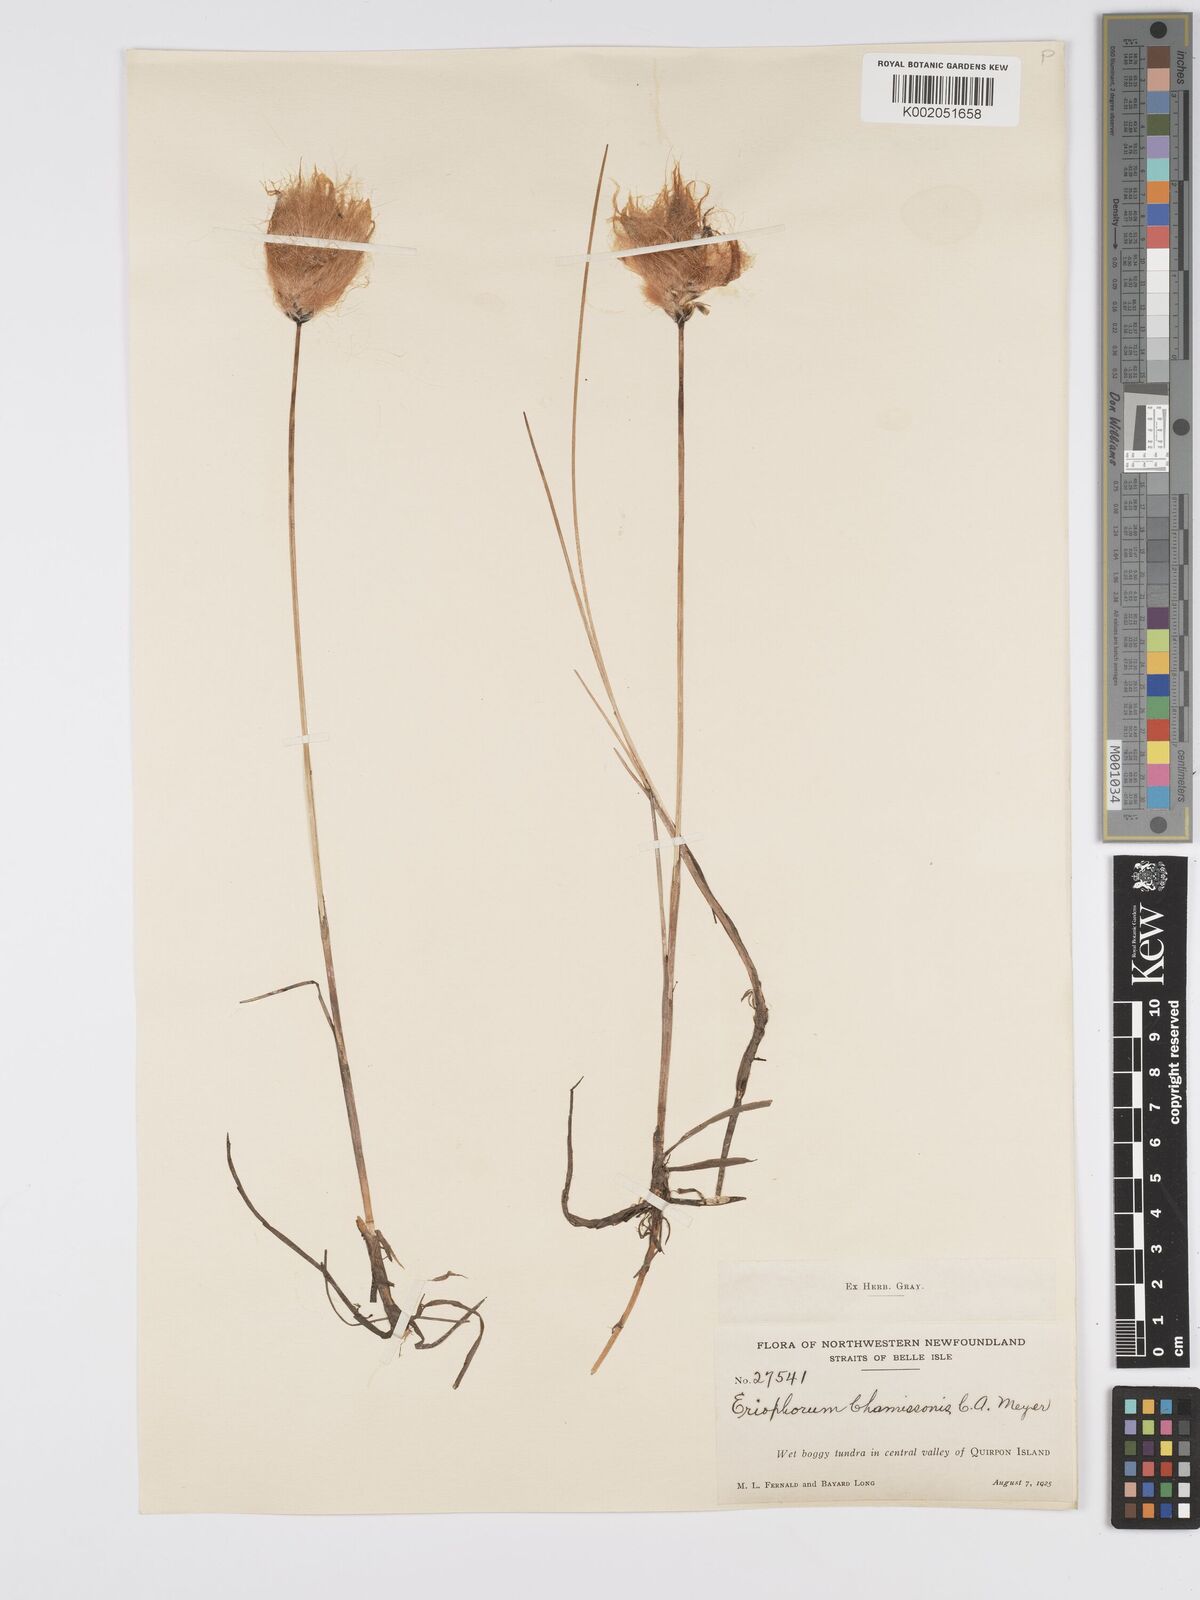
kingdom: Plantae
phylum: Tracheophyta
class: Liliopsida
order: Poales
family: Cyperaceae
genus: Eriophorum
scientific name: Eriophorum chamissonis
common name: Chamisso's cottongrass
